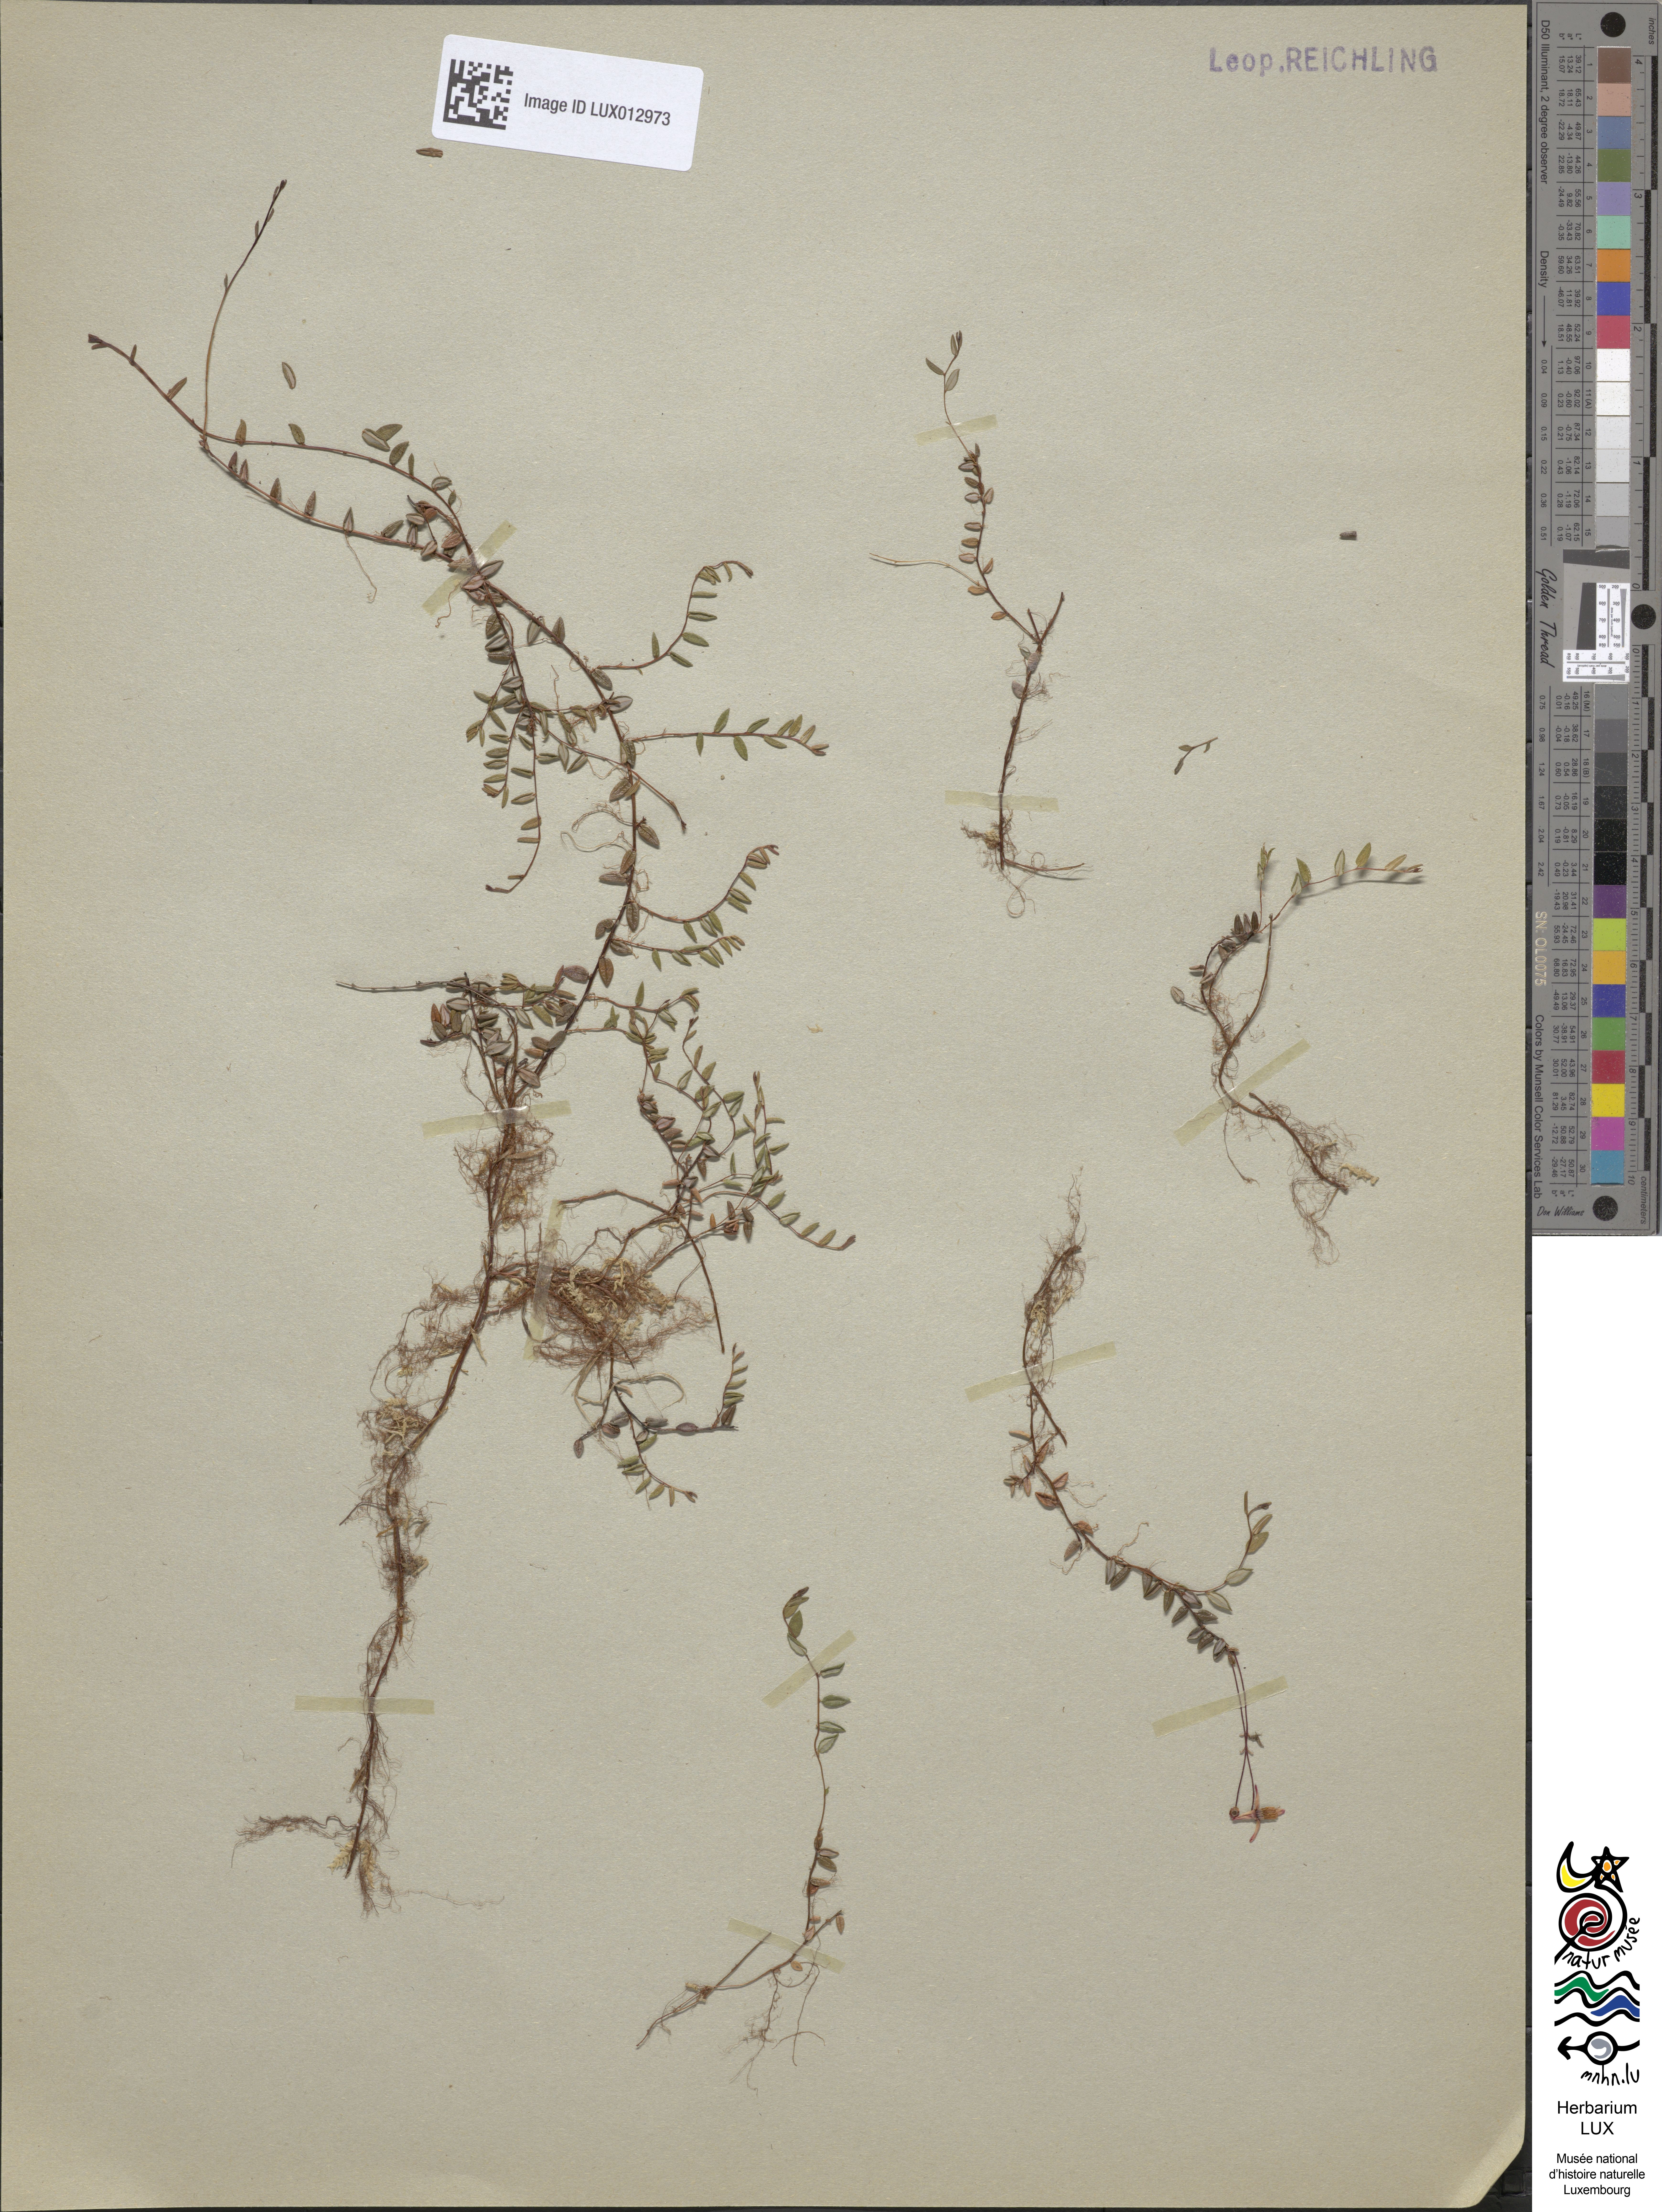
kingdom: Plantae
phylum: Tracheophyta
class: Magnoliopsida
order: Ericales
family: Ericaceae
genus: Vaccinium
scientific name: Vaccinium oxycoccos
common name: Cranberry
